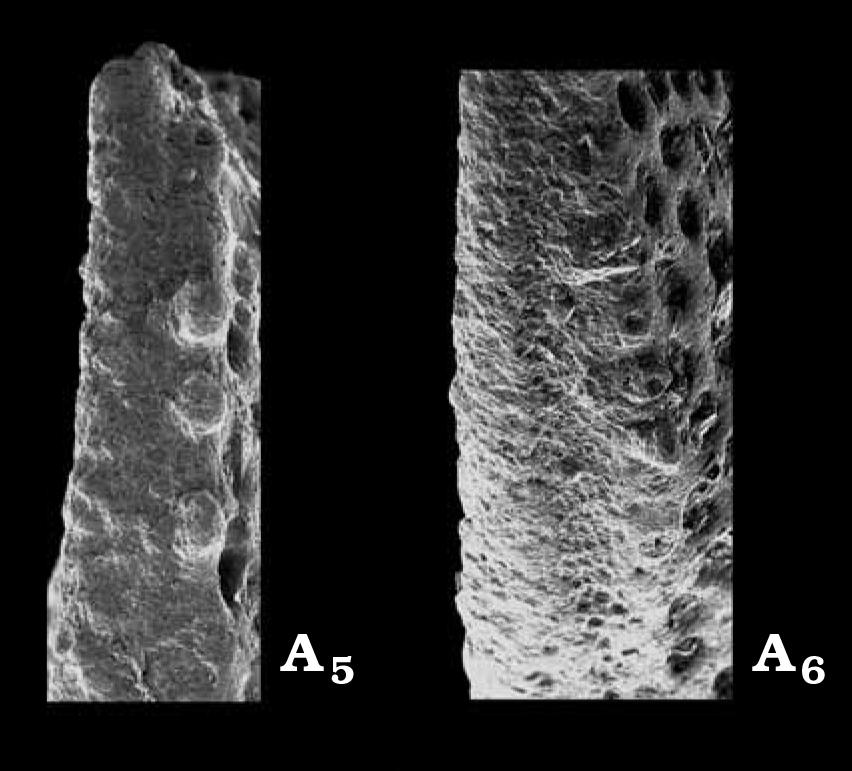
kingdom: Animalia
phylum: Arthropoda
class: Ostracoda
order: Palaeocopida
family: Oepikellidae
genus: Lavachilina
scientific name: Lavachilina evae
